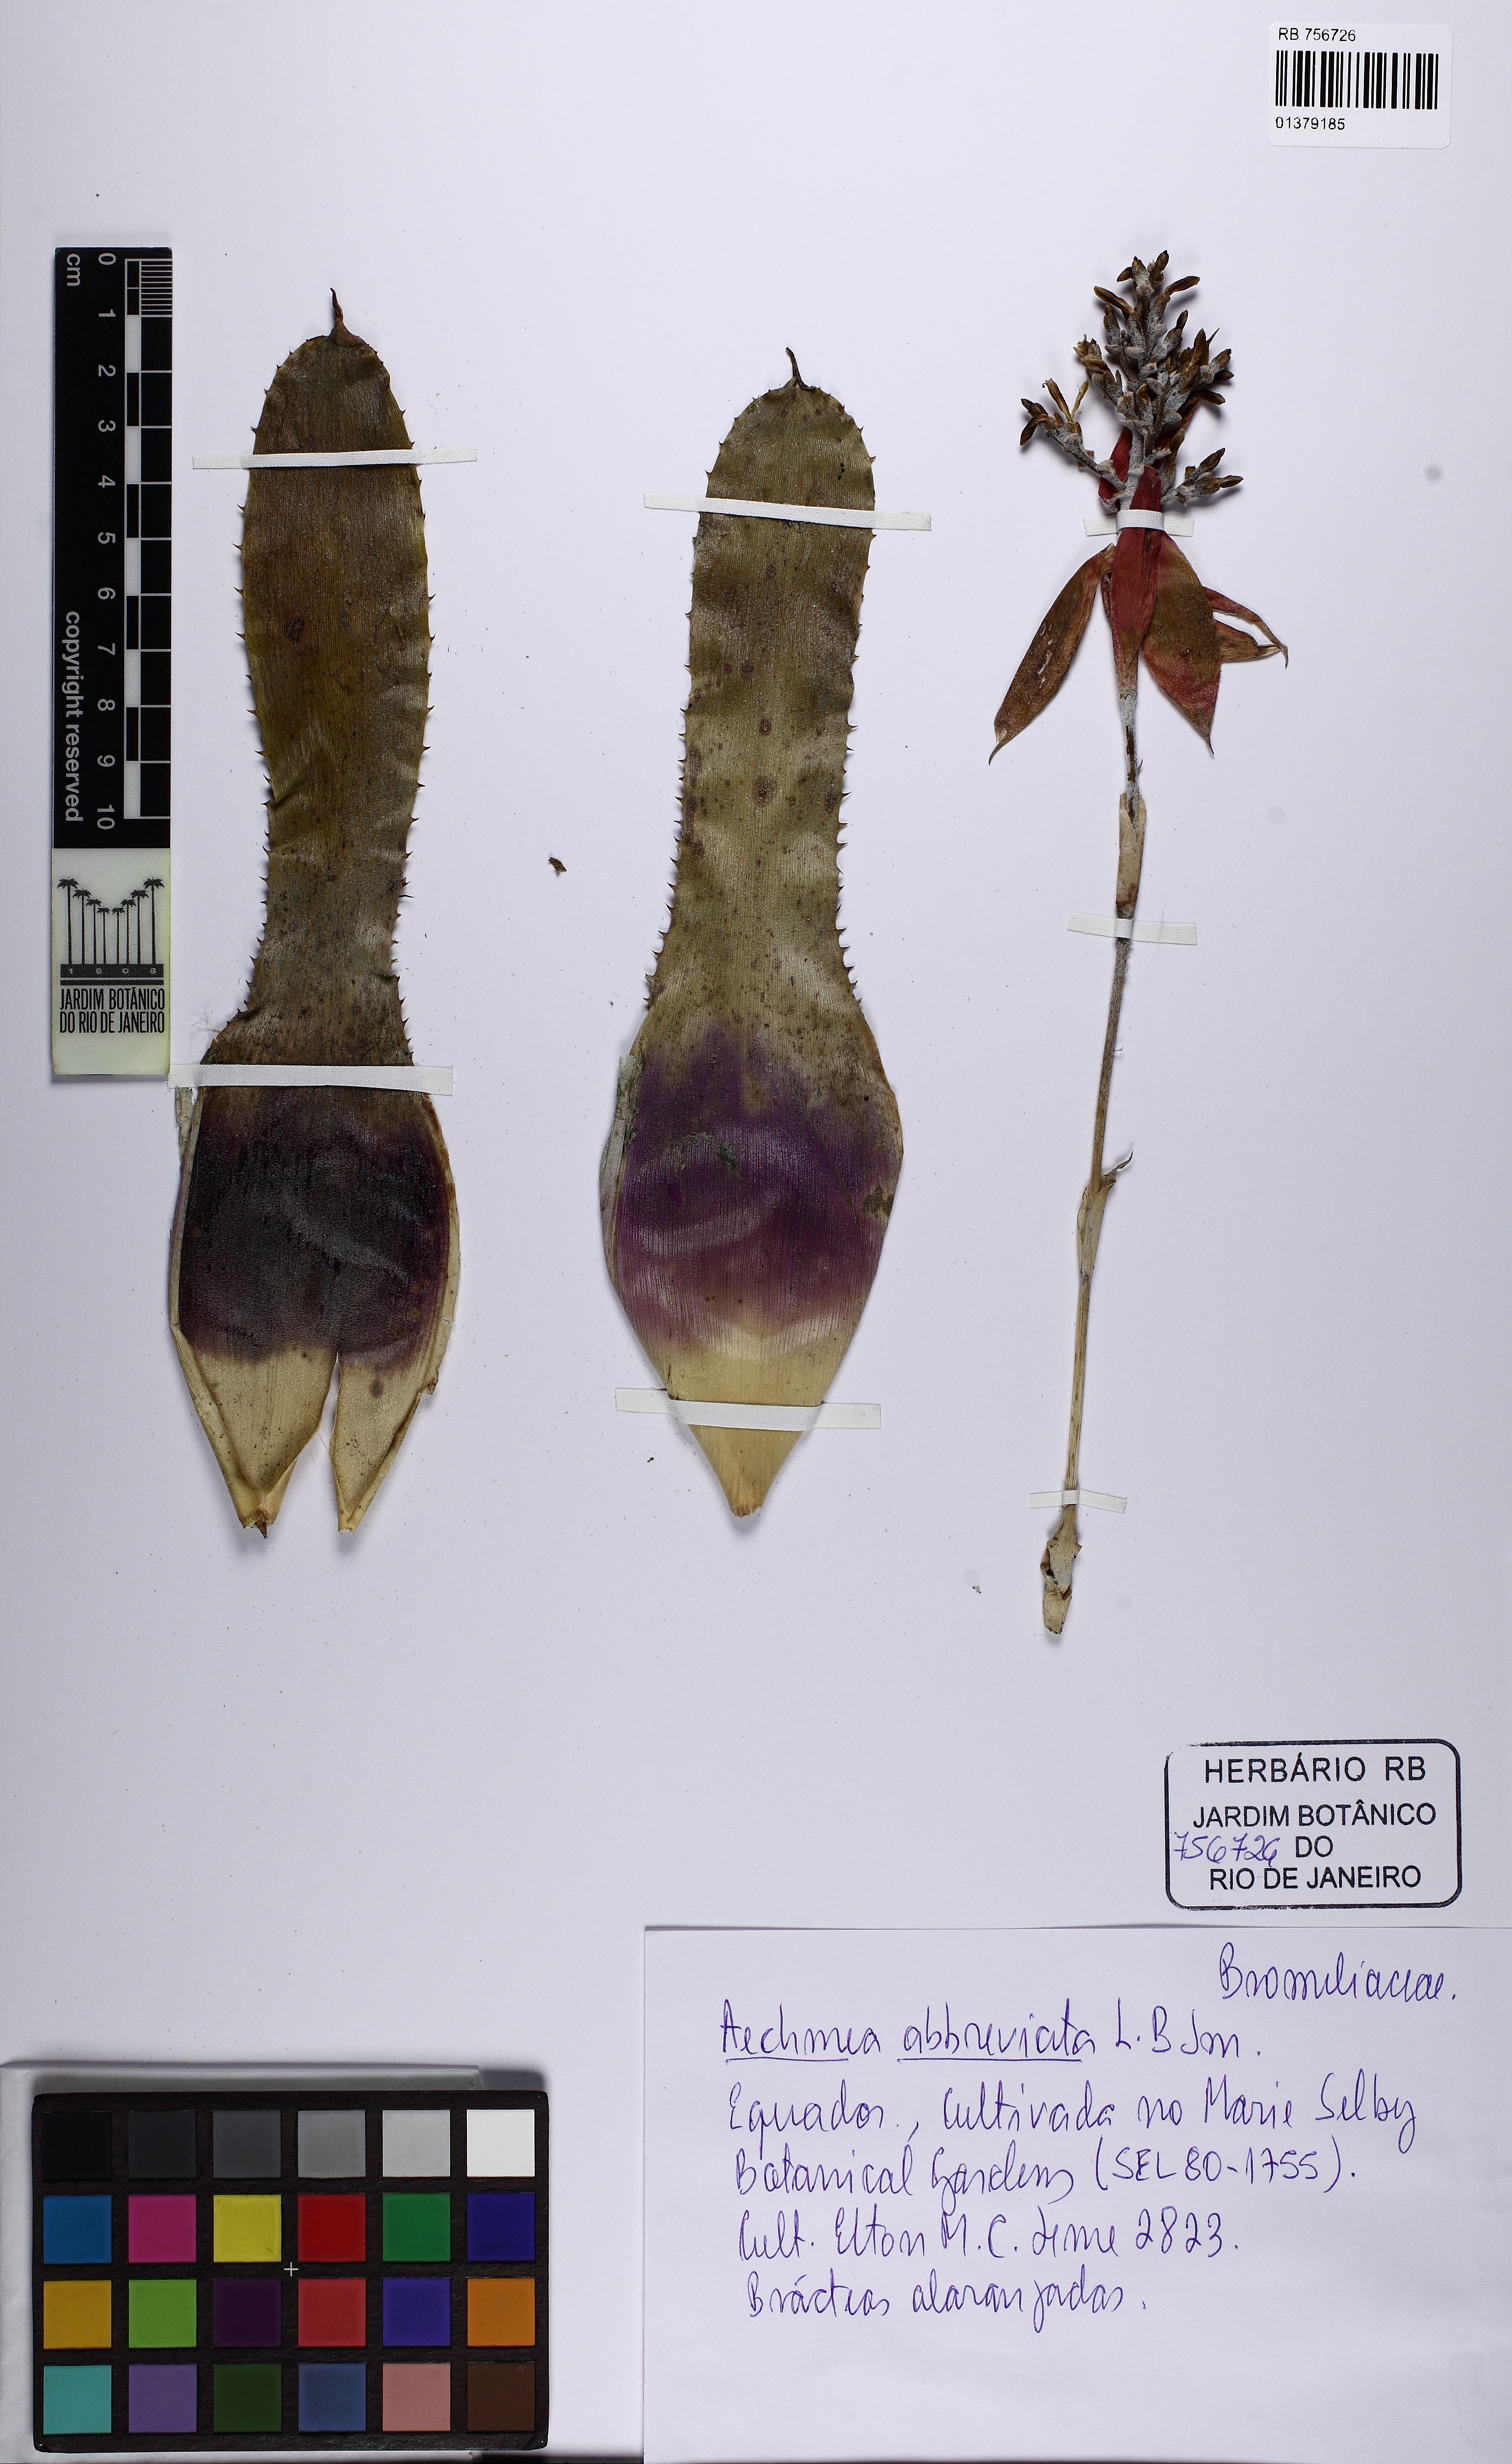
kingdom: Plantae
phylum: Tracheophyta
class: Liliopsida
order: Poales
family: Bromeliaceae
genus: Wittmackia
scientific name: Wittmackia canaliculata
